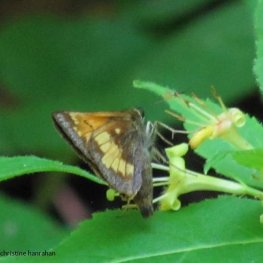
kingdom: Animalia
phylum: Arthropoda
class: Insecta
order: Lepidoptera
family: Hesperiidae
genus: Lon
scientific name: Lon hobomok
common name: Hobomok Skipper
